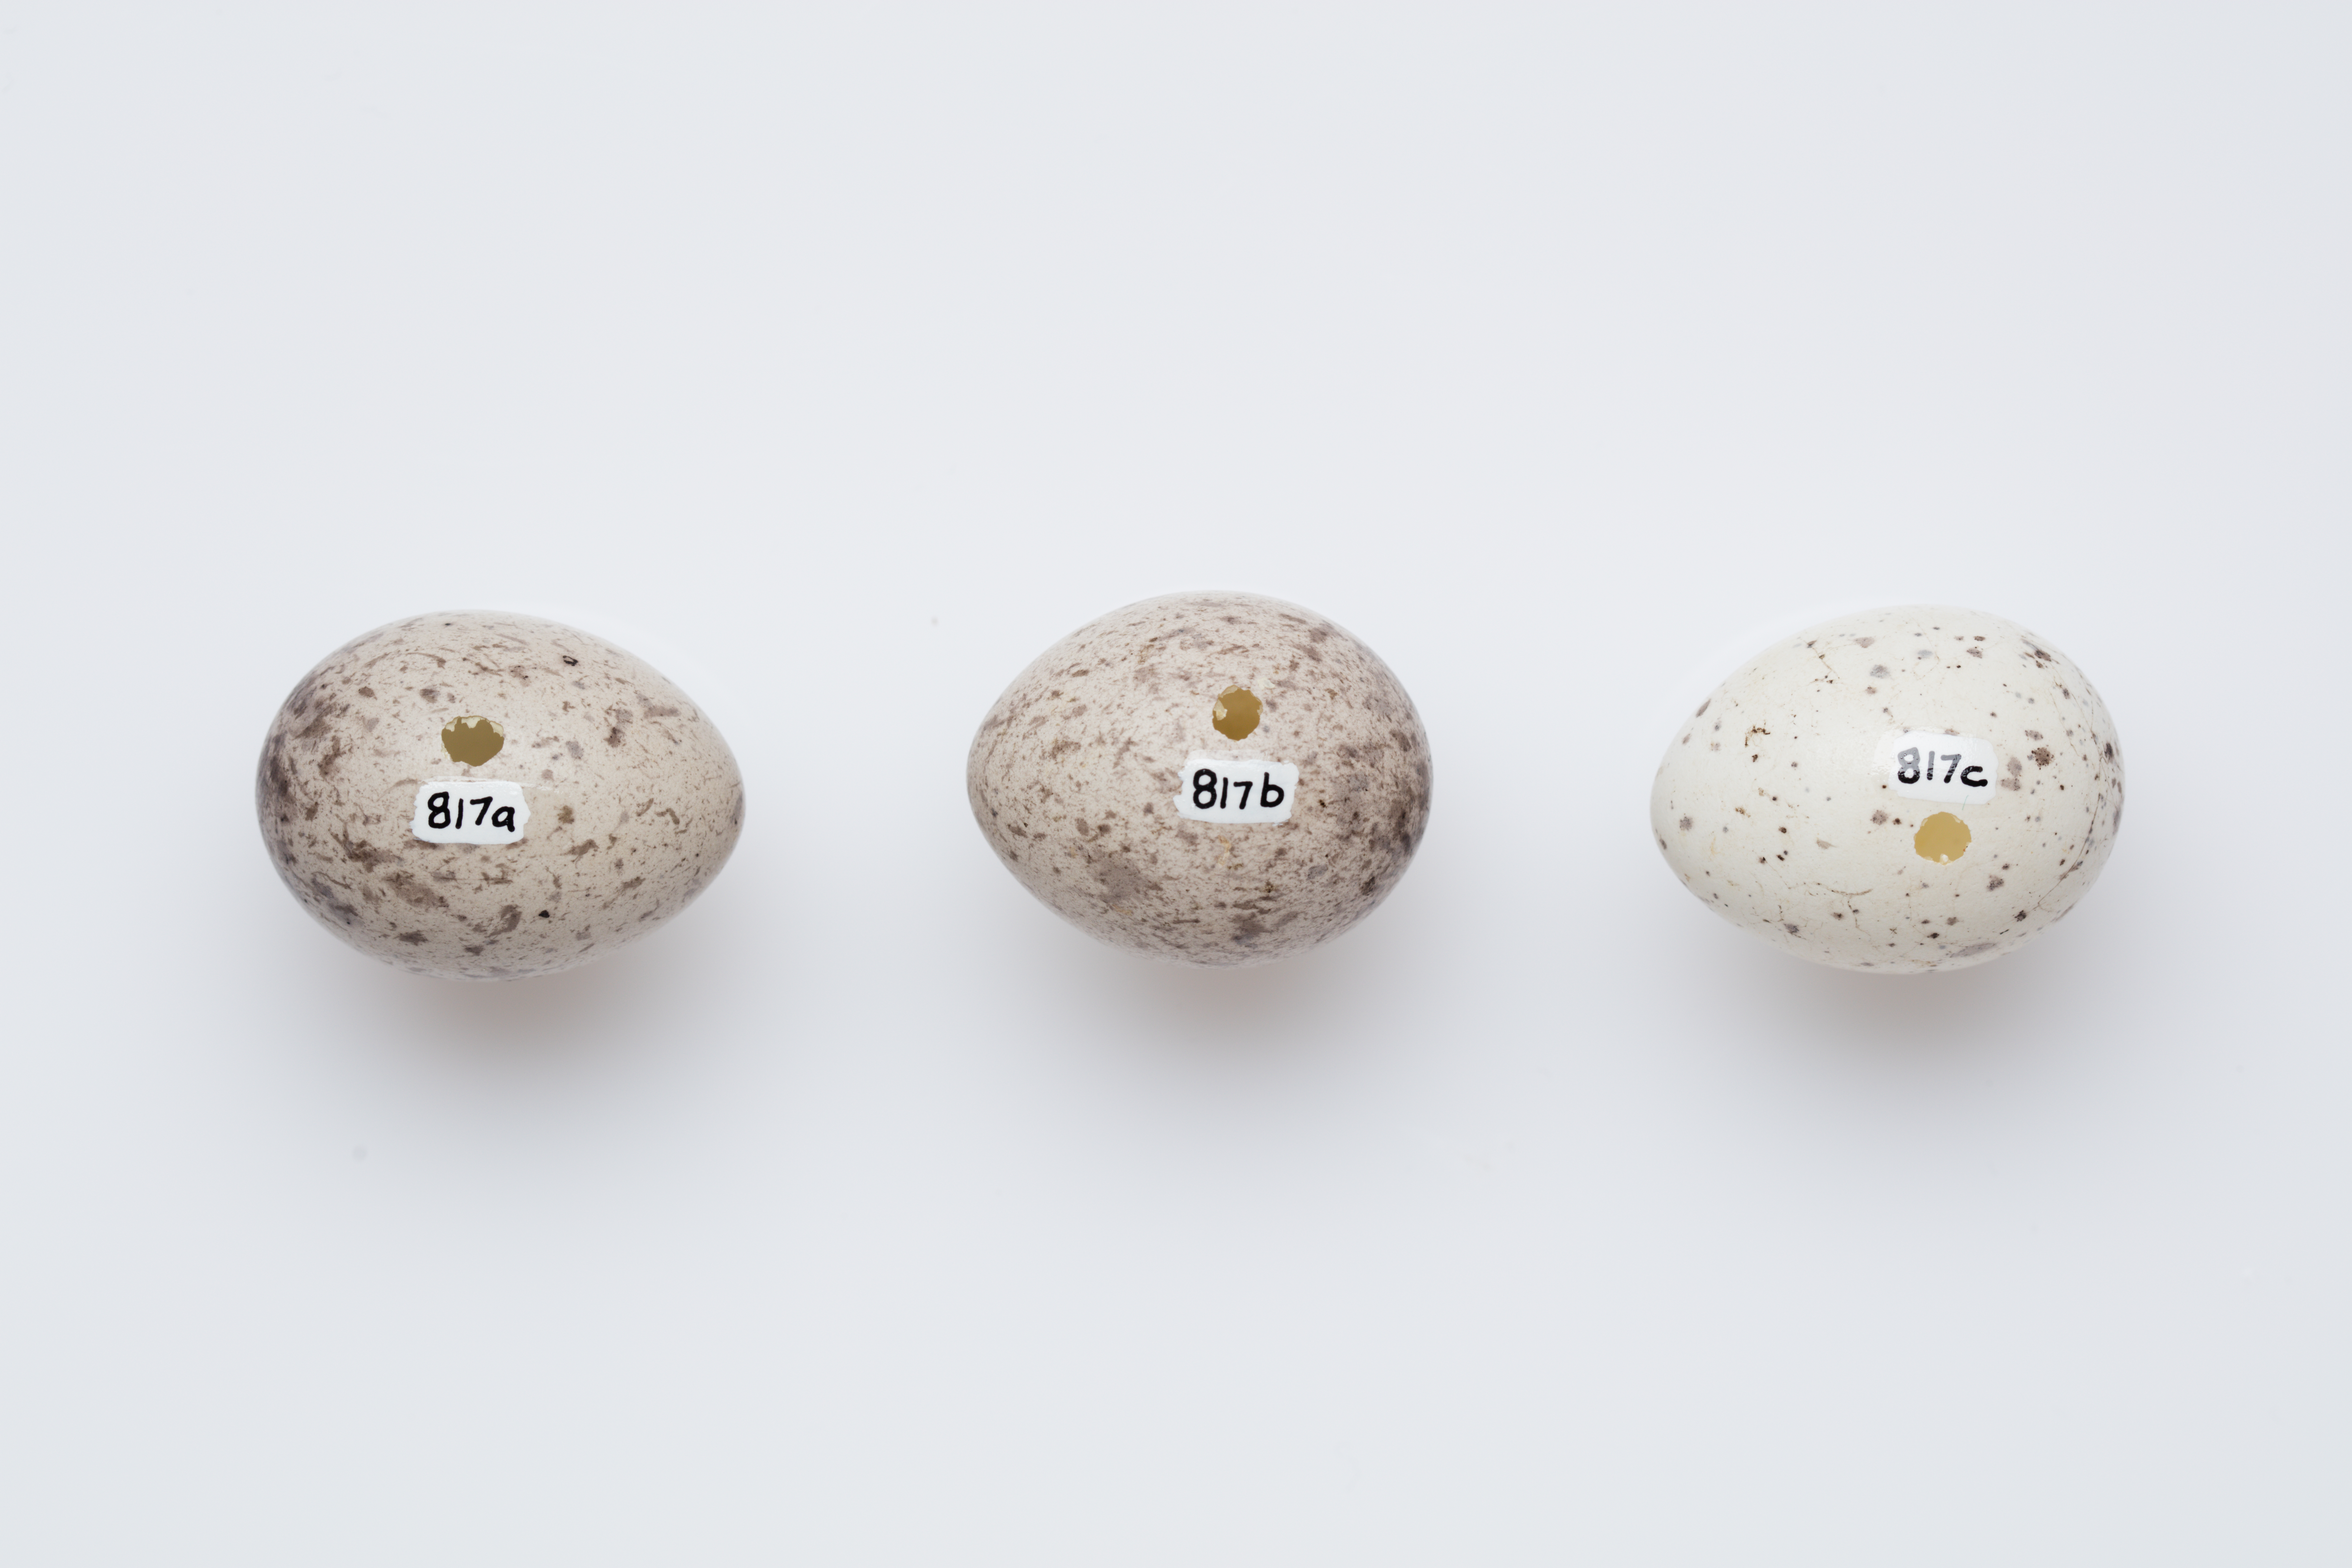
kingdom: Animalia
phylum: Chordata
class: Aves
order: Passeriformes
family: Callaeatidae
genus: Philesturnus
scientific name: Philesturnus carunculatus
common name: South island saddleback
